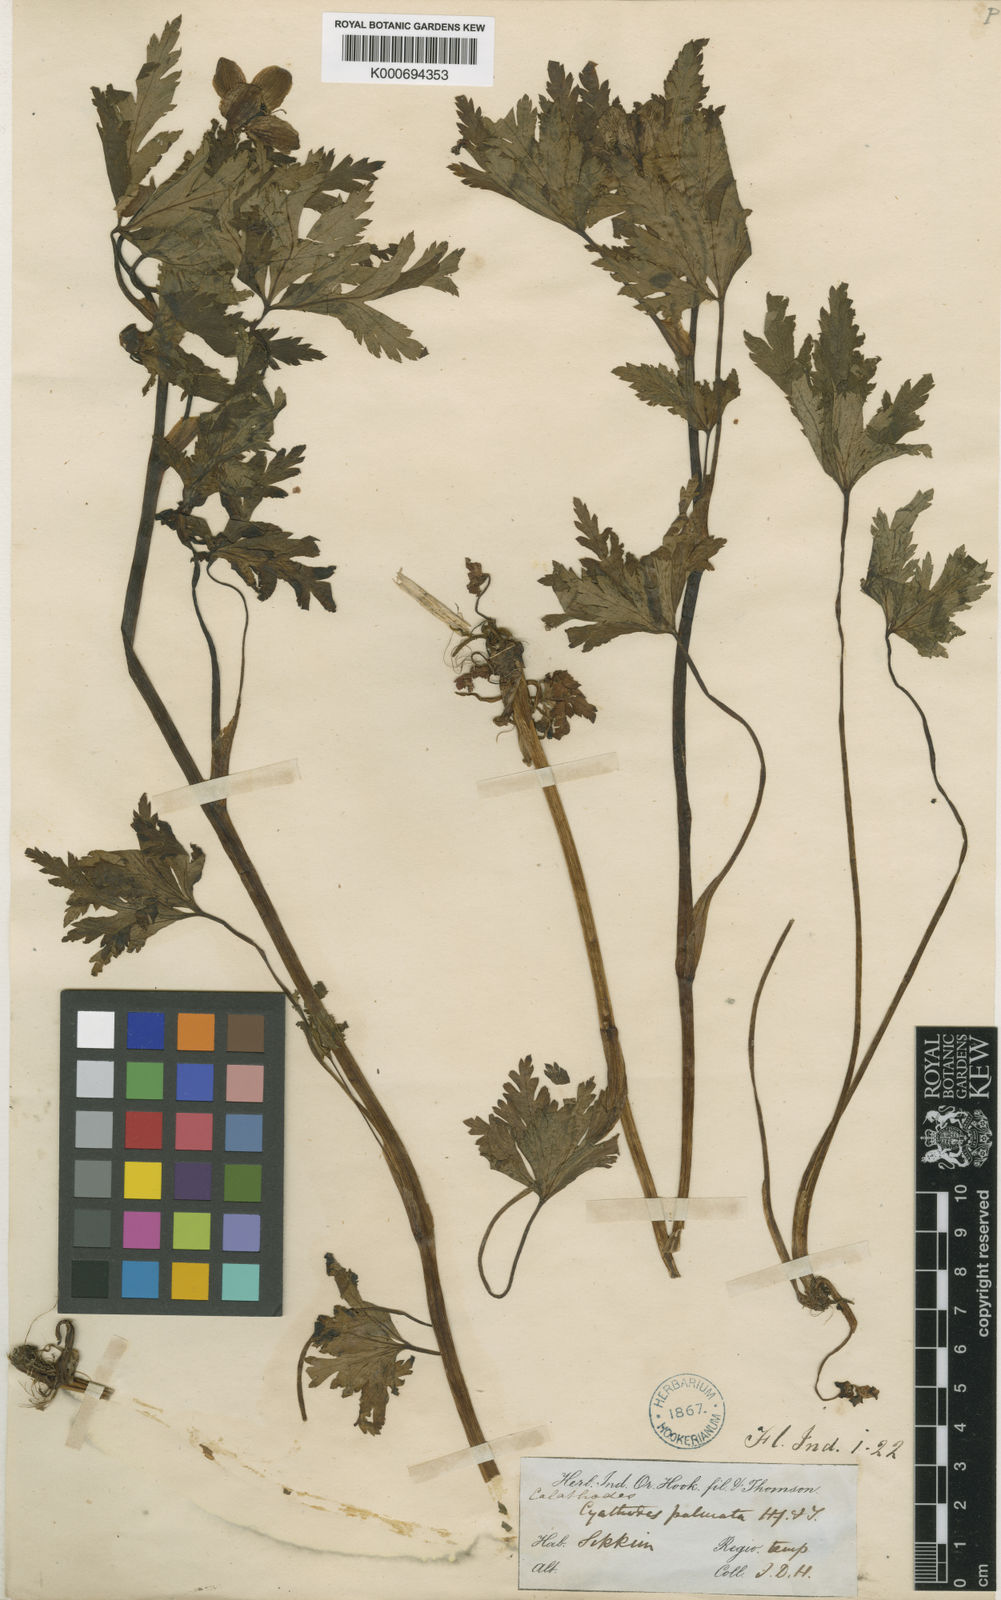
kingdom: Plantae
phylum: Tracheophyta
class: Magnoliopsida
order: Ranunculales
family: Ranunculaceae
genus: Calathodes
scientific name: Calathodes palmata
